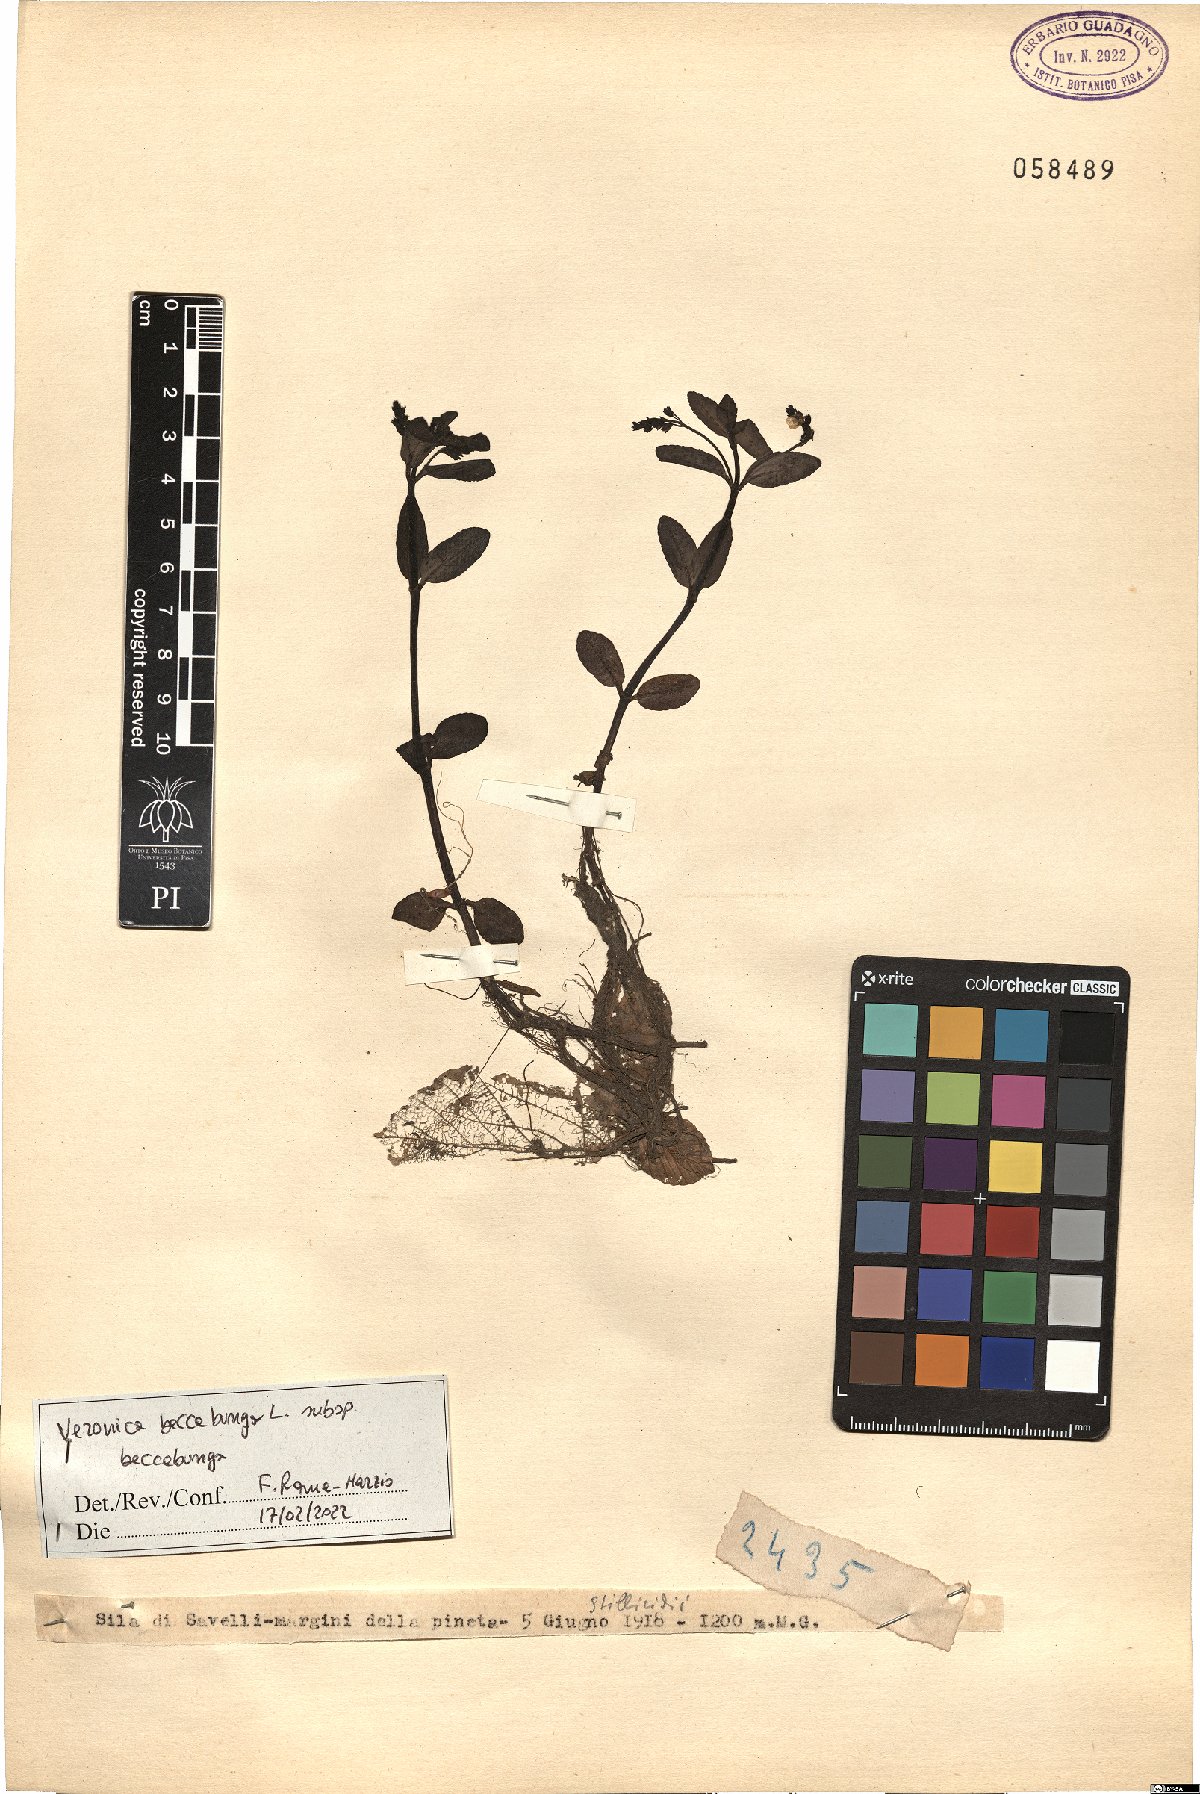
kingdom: Plantae
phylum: Tracheophyta
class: Magnoliopsida
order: Lamiales
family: Plantaginaceae
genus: Veronica
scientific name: Veronica beccabunga
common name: Brooklime
